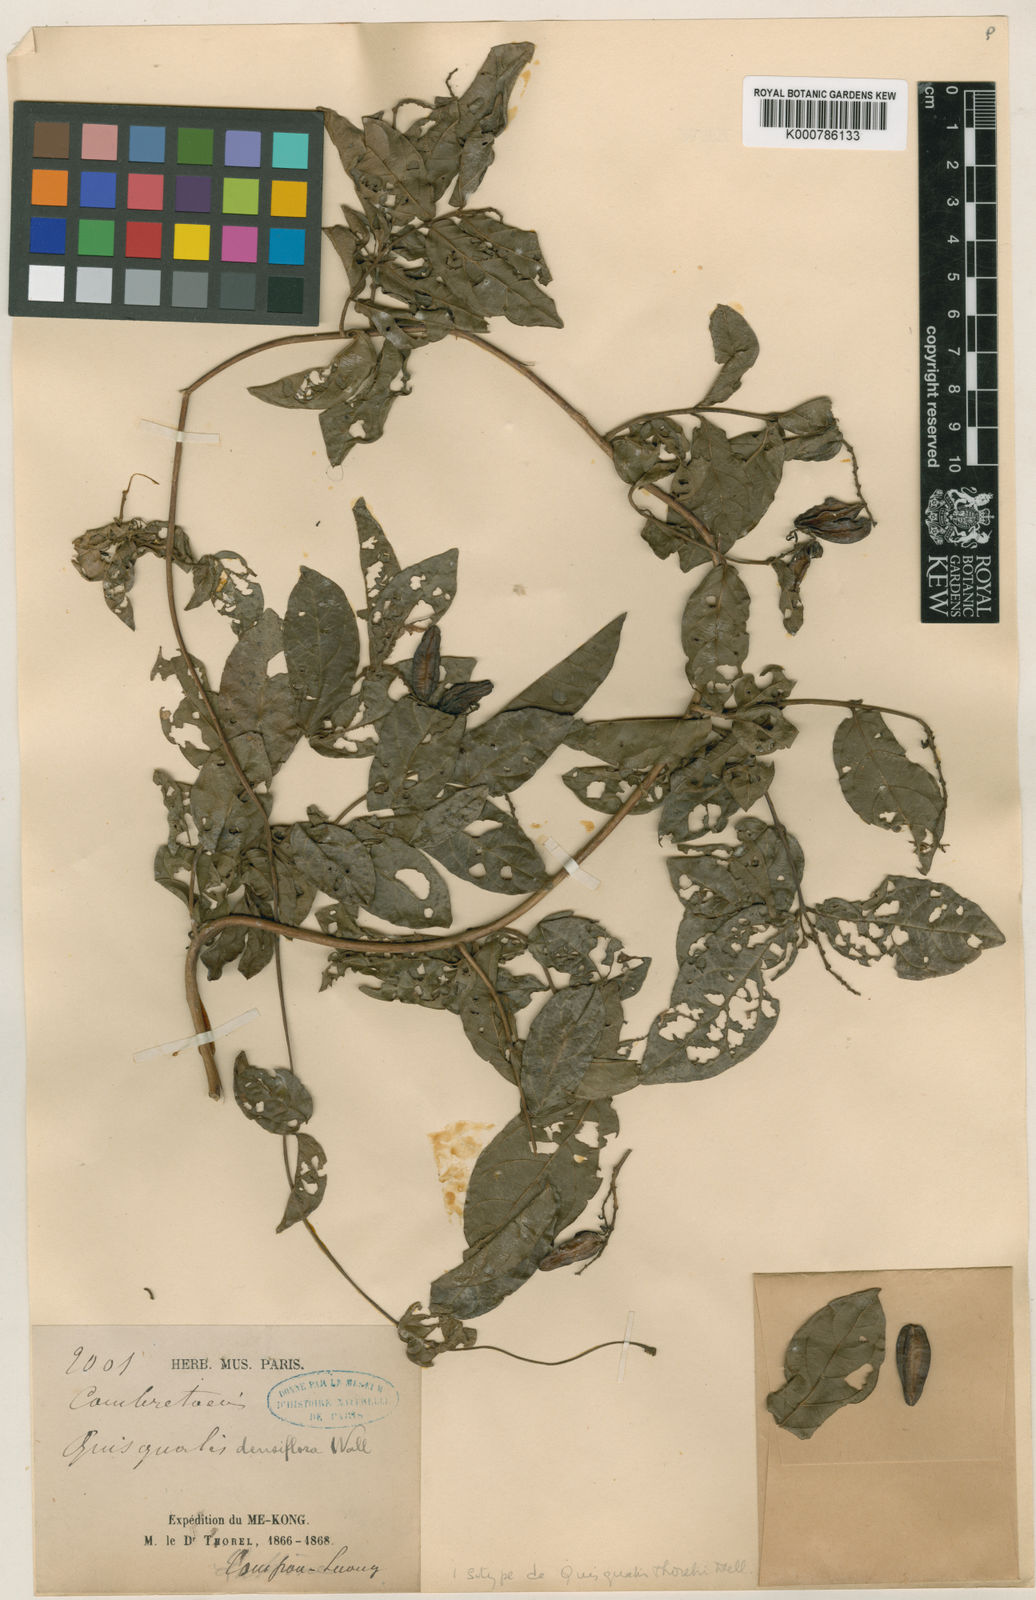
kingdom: Plantae
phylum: Tracheophyta
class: Magnoliopsida
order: Myrtales
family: Combretaceae
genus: Combretum
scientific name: Combretum thorelii
